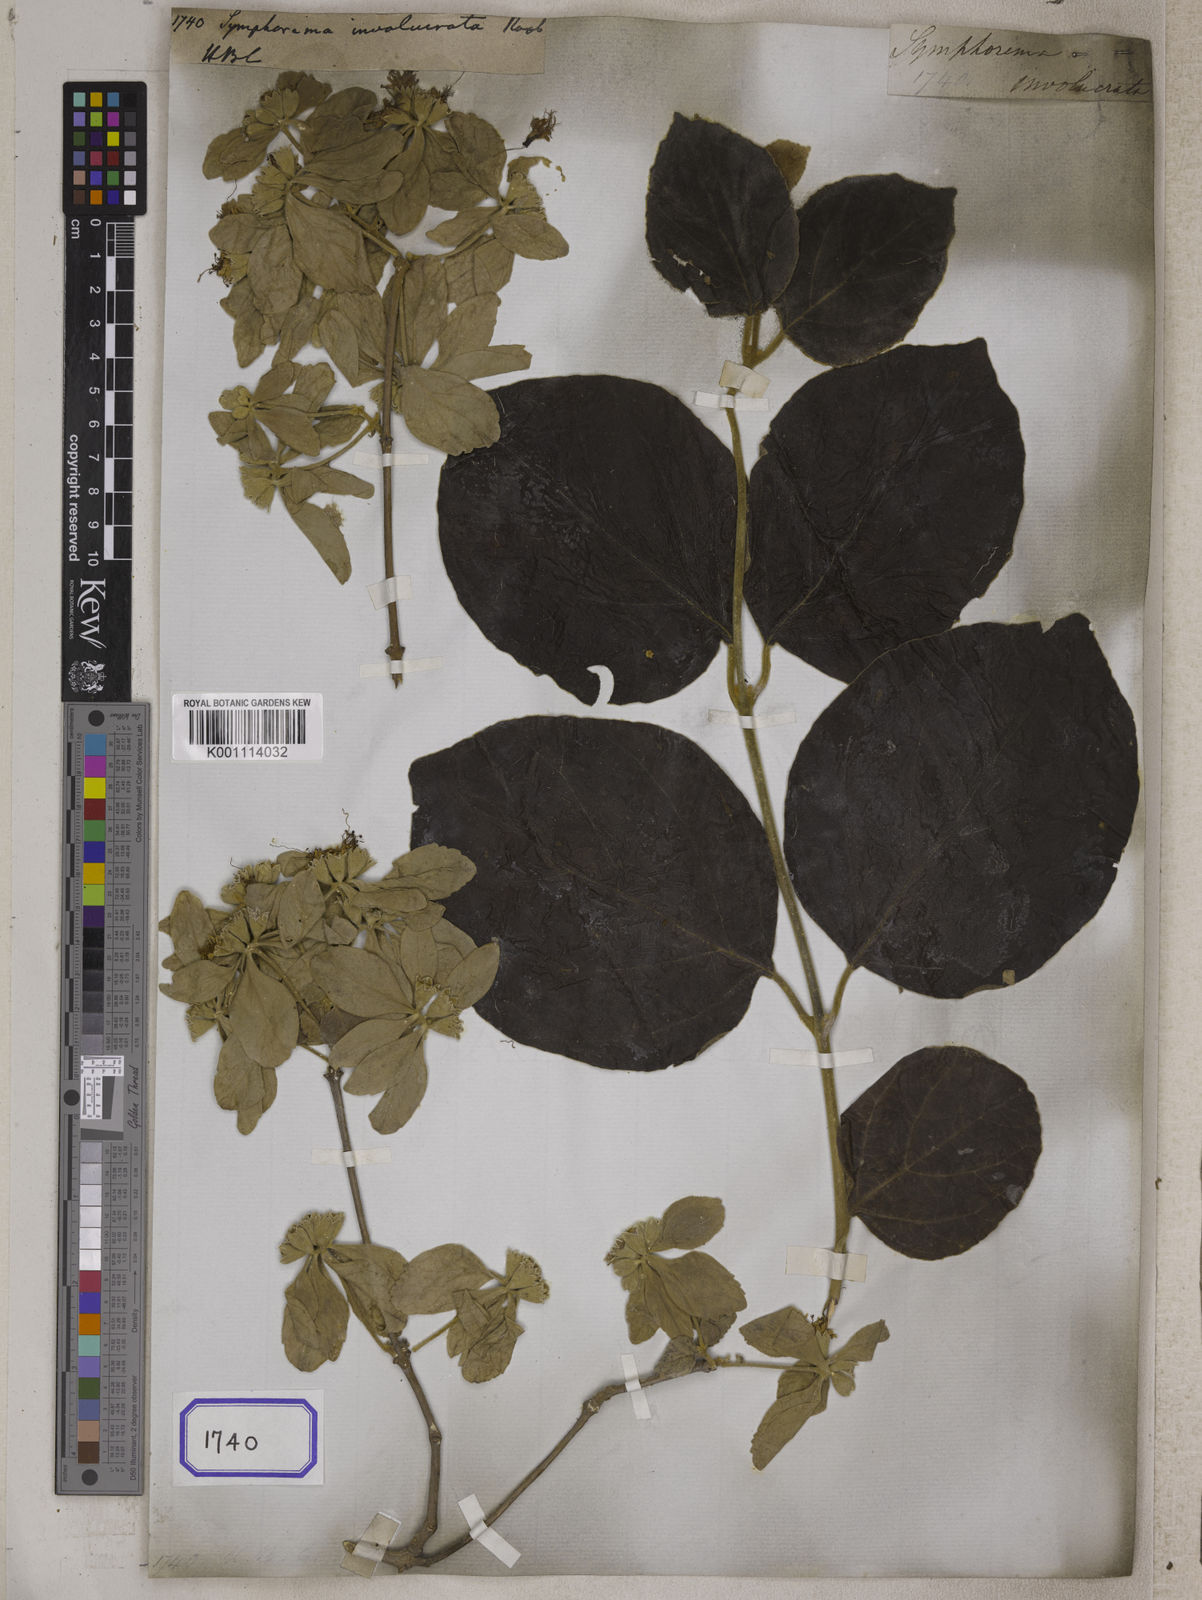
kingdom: Plantae
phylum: Tracheophyta
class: Magnoliopsida
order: Lamiales
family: Lamiaceae
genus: Symphorema
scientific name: Symphorema involucratum
